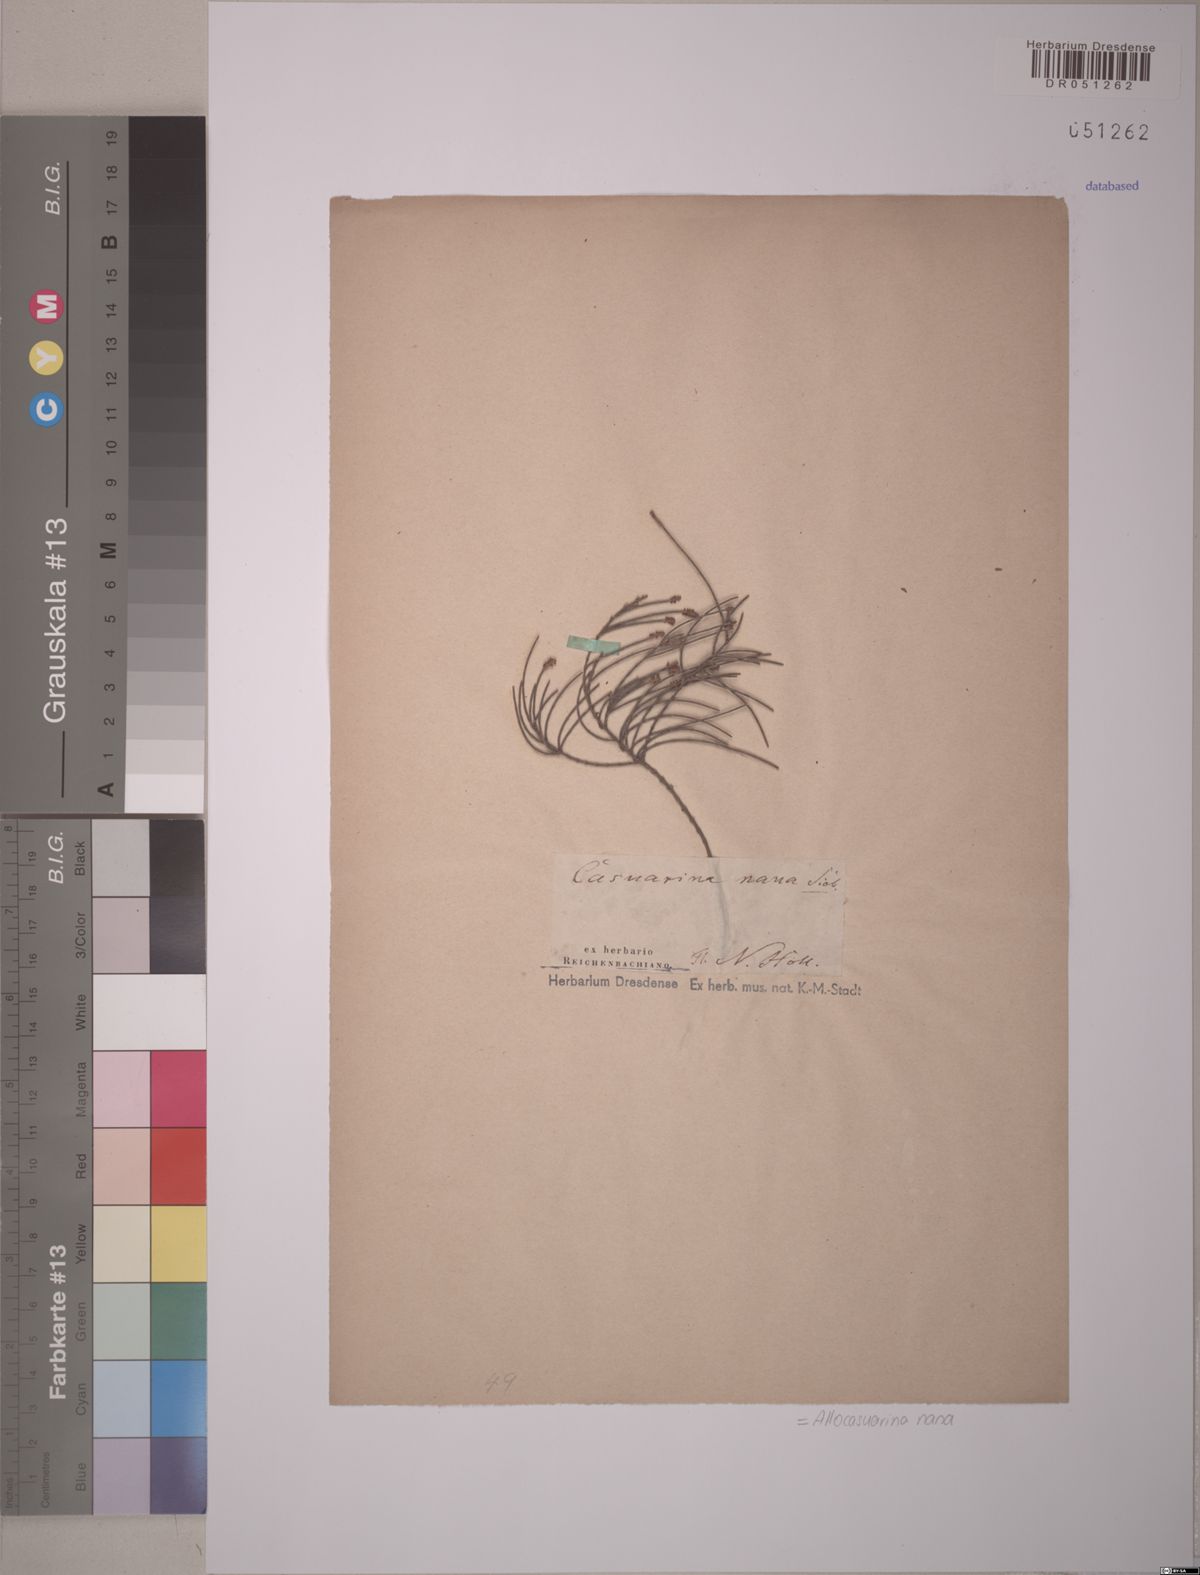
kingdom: Plantae
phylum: Tracheophyta
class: Magnoliopsida
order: Fagales
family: Casuarinaceae
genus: Allocasuarina
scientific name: Allocasuarina nana
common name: Stunted she-oak
